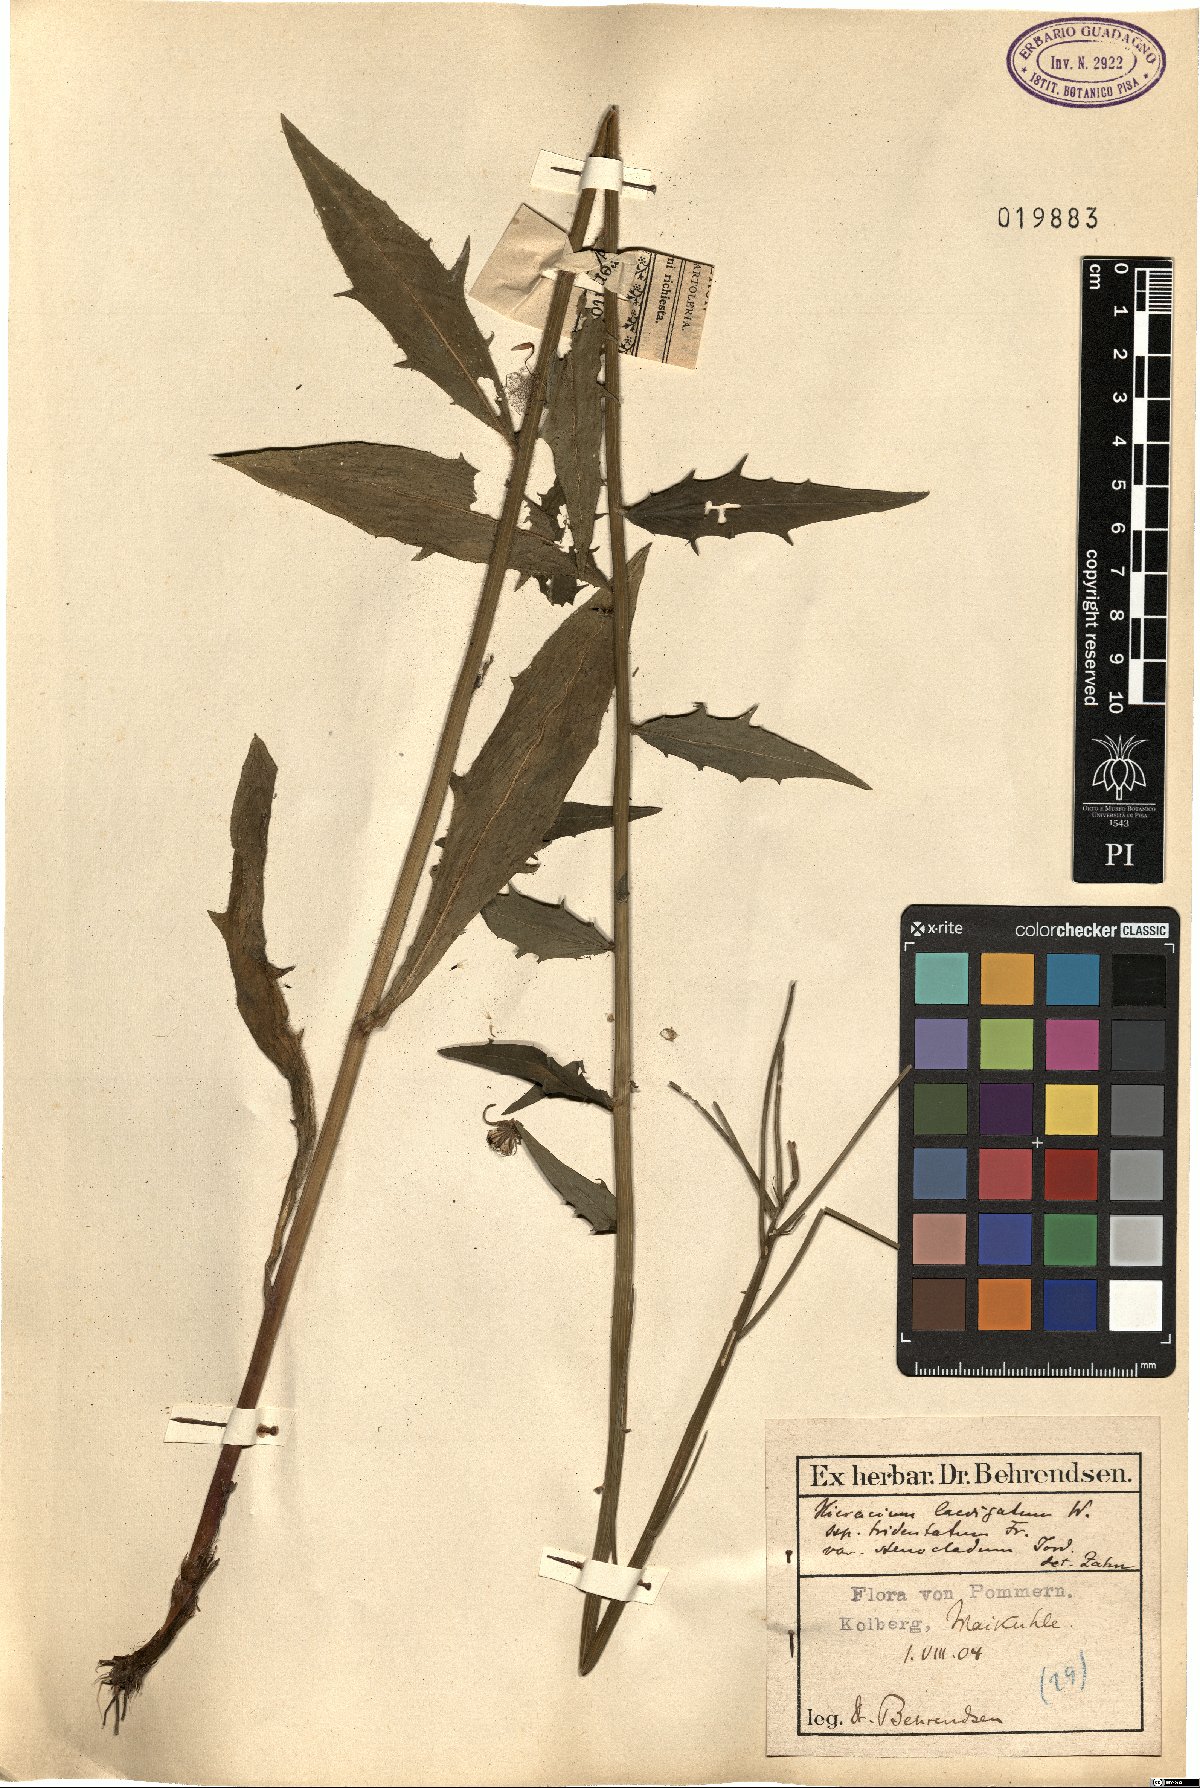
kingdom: Plantae
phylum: Tracheophyta
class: Magnoliopsida
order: Asterales
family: Asteraceae
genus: Hieracium
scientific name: Hieracium tridentatum
